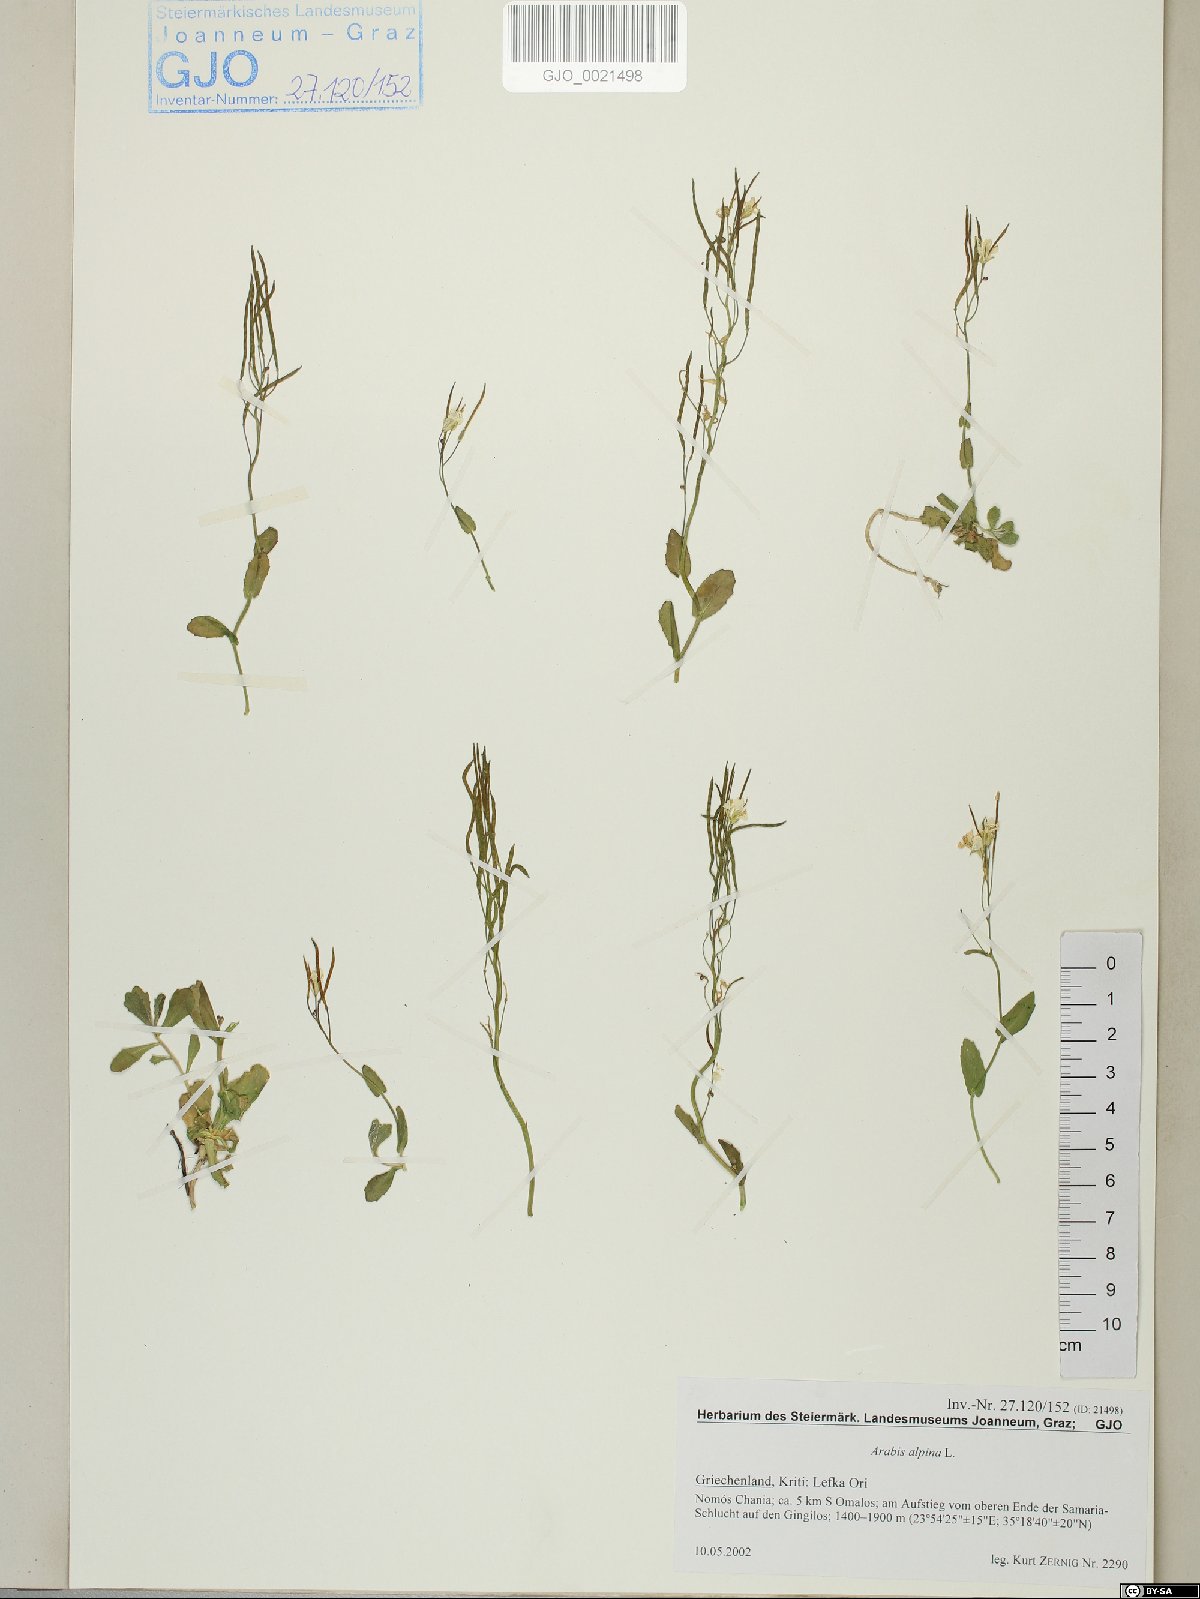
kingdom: Plantae
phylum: Tracheophyta
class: Magnoliopsida
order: Brassicales
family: Brassicaceae
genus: Arabis
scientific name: Arabis alpina
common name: Alpine rock-cress
